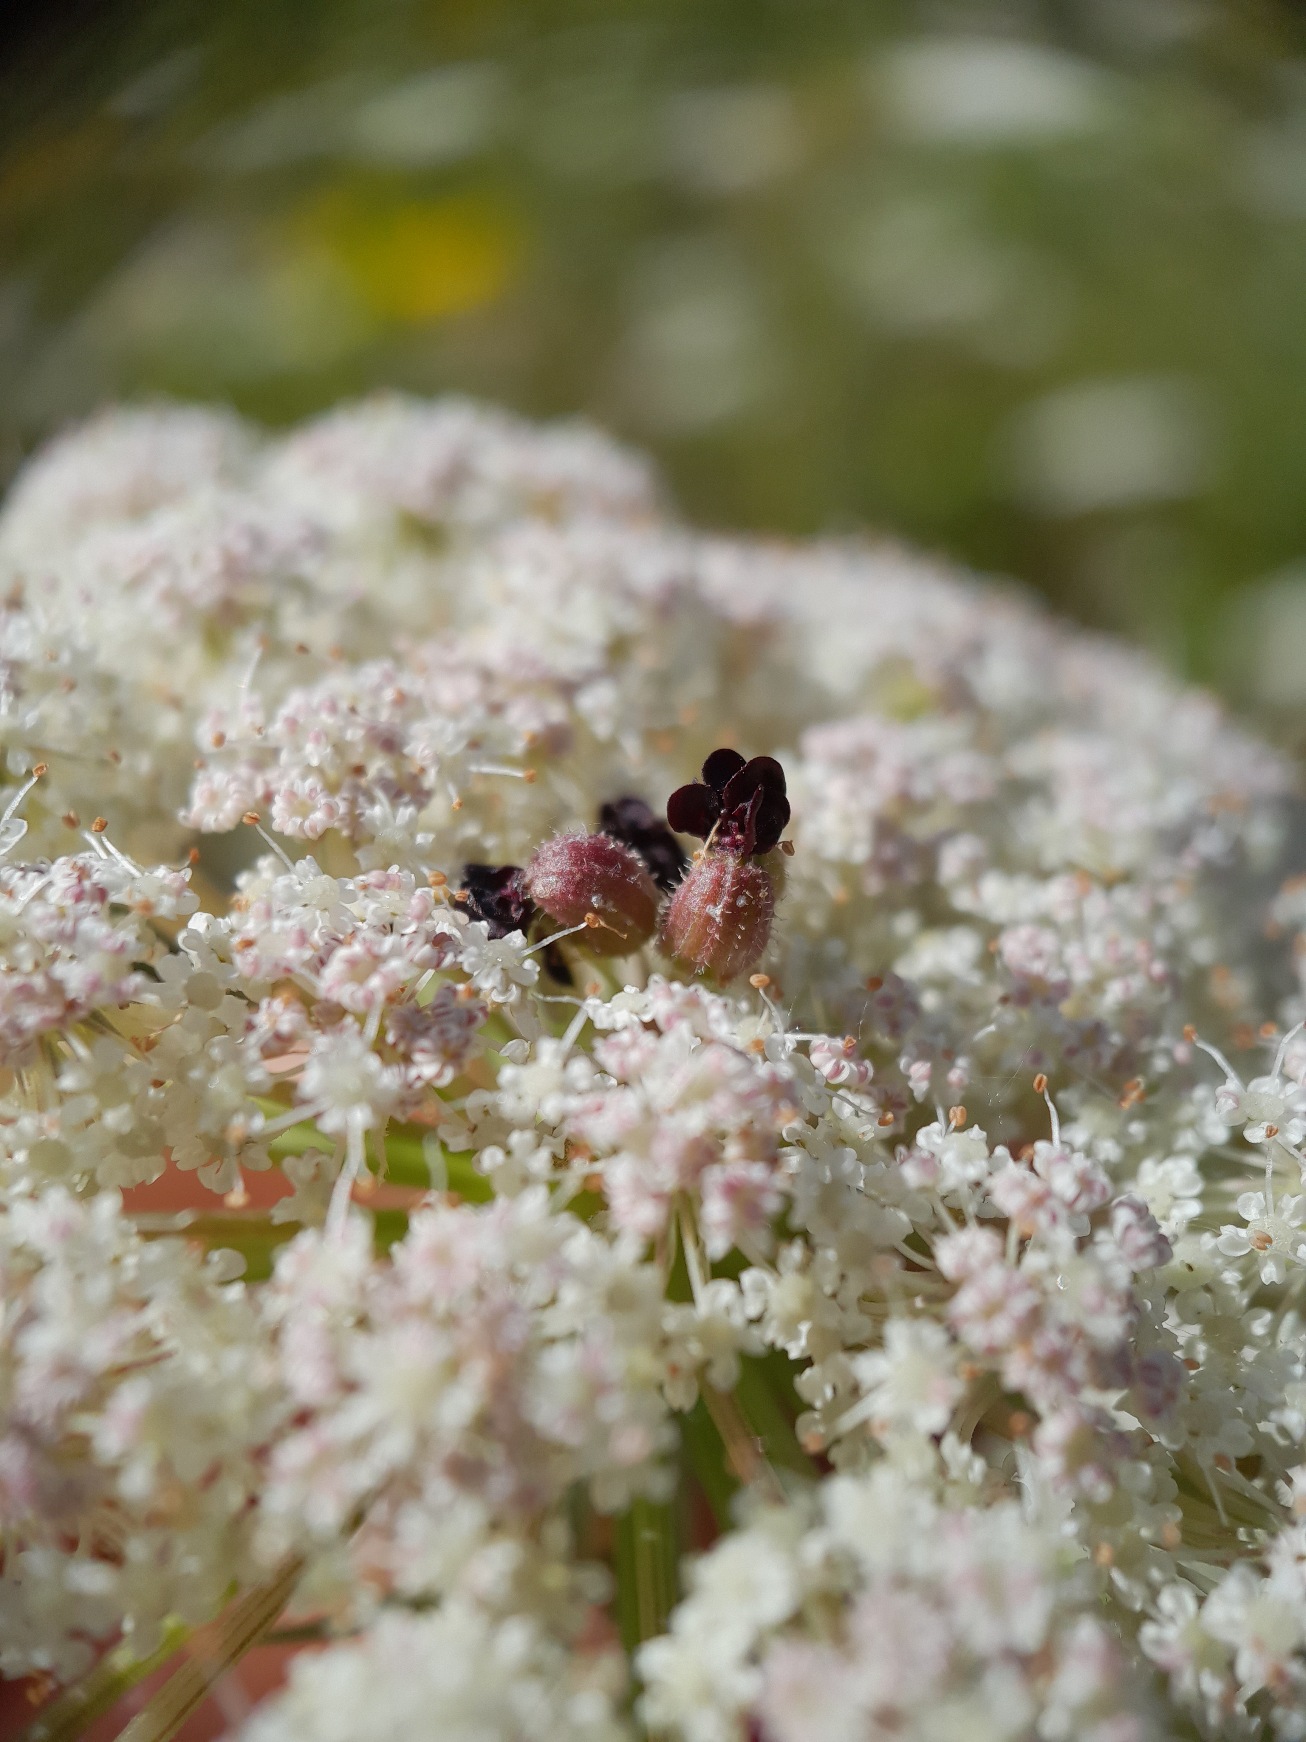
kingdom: Animalia
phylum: Arthropoda
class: Insecta
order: Diptera
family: Cecidomyiidae
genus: Kiefferia
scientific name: Kiefferia pericarpiicola
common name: Gulerodsgalmyg
